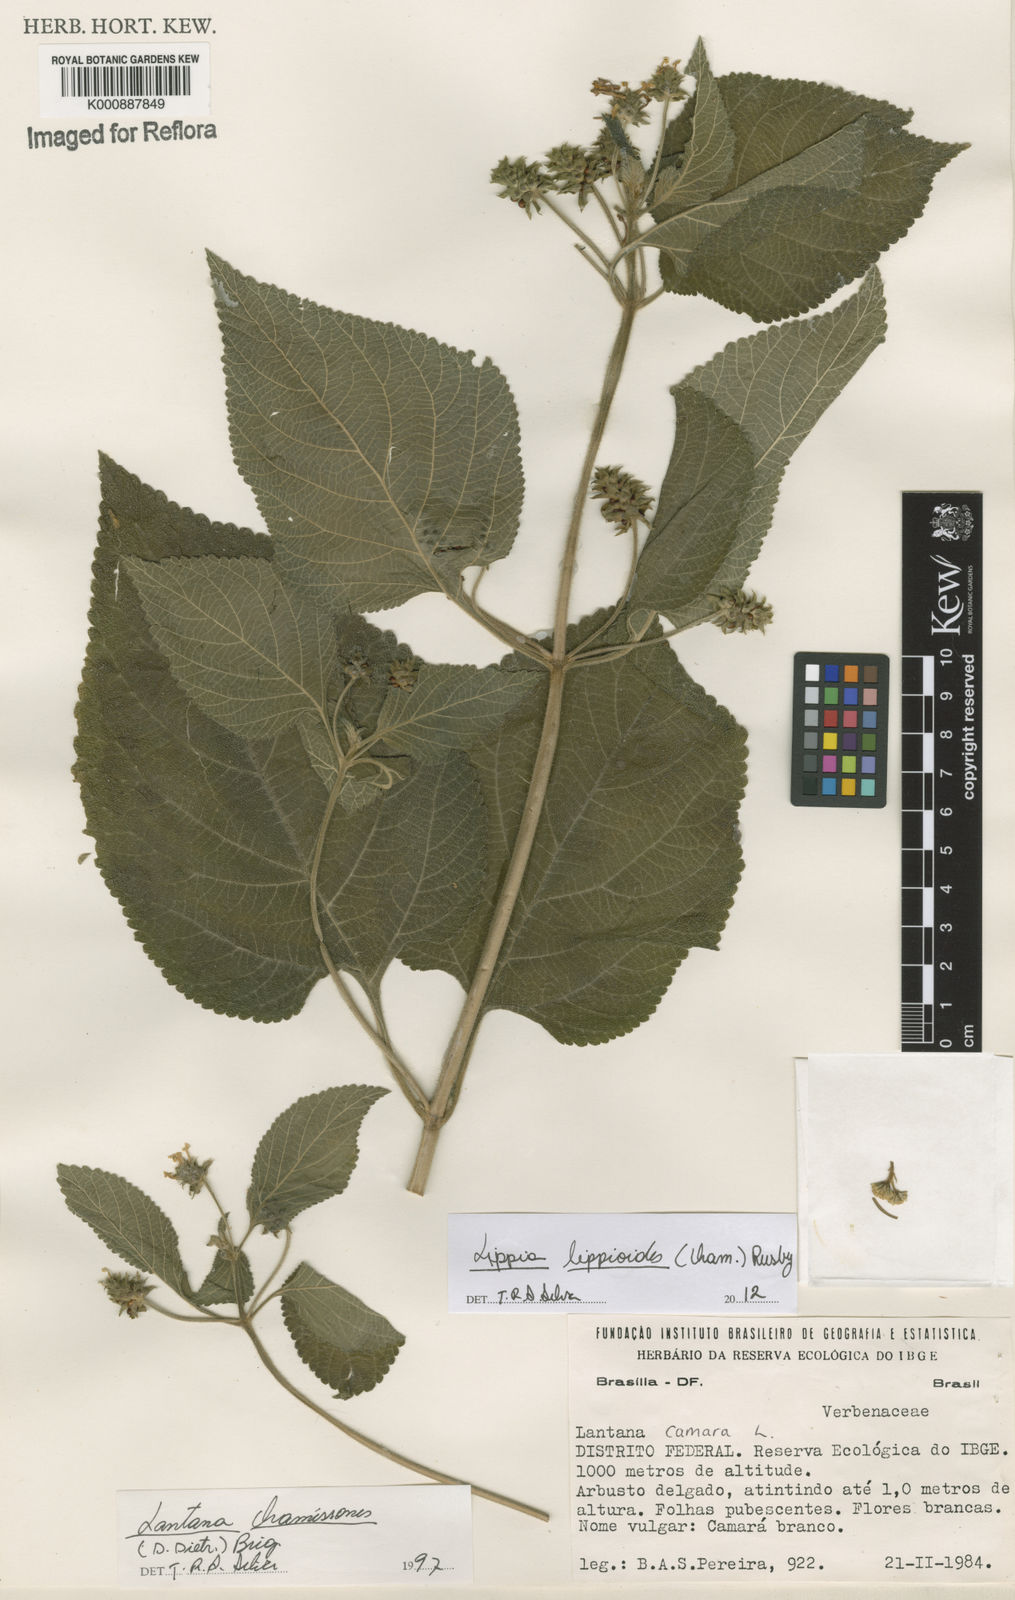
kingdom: Plantae
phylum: Tracheophyta
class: Magnoliopsida
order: Lamiales
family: Verbenaceae
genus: Lippia
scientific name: Lippia lippioides
